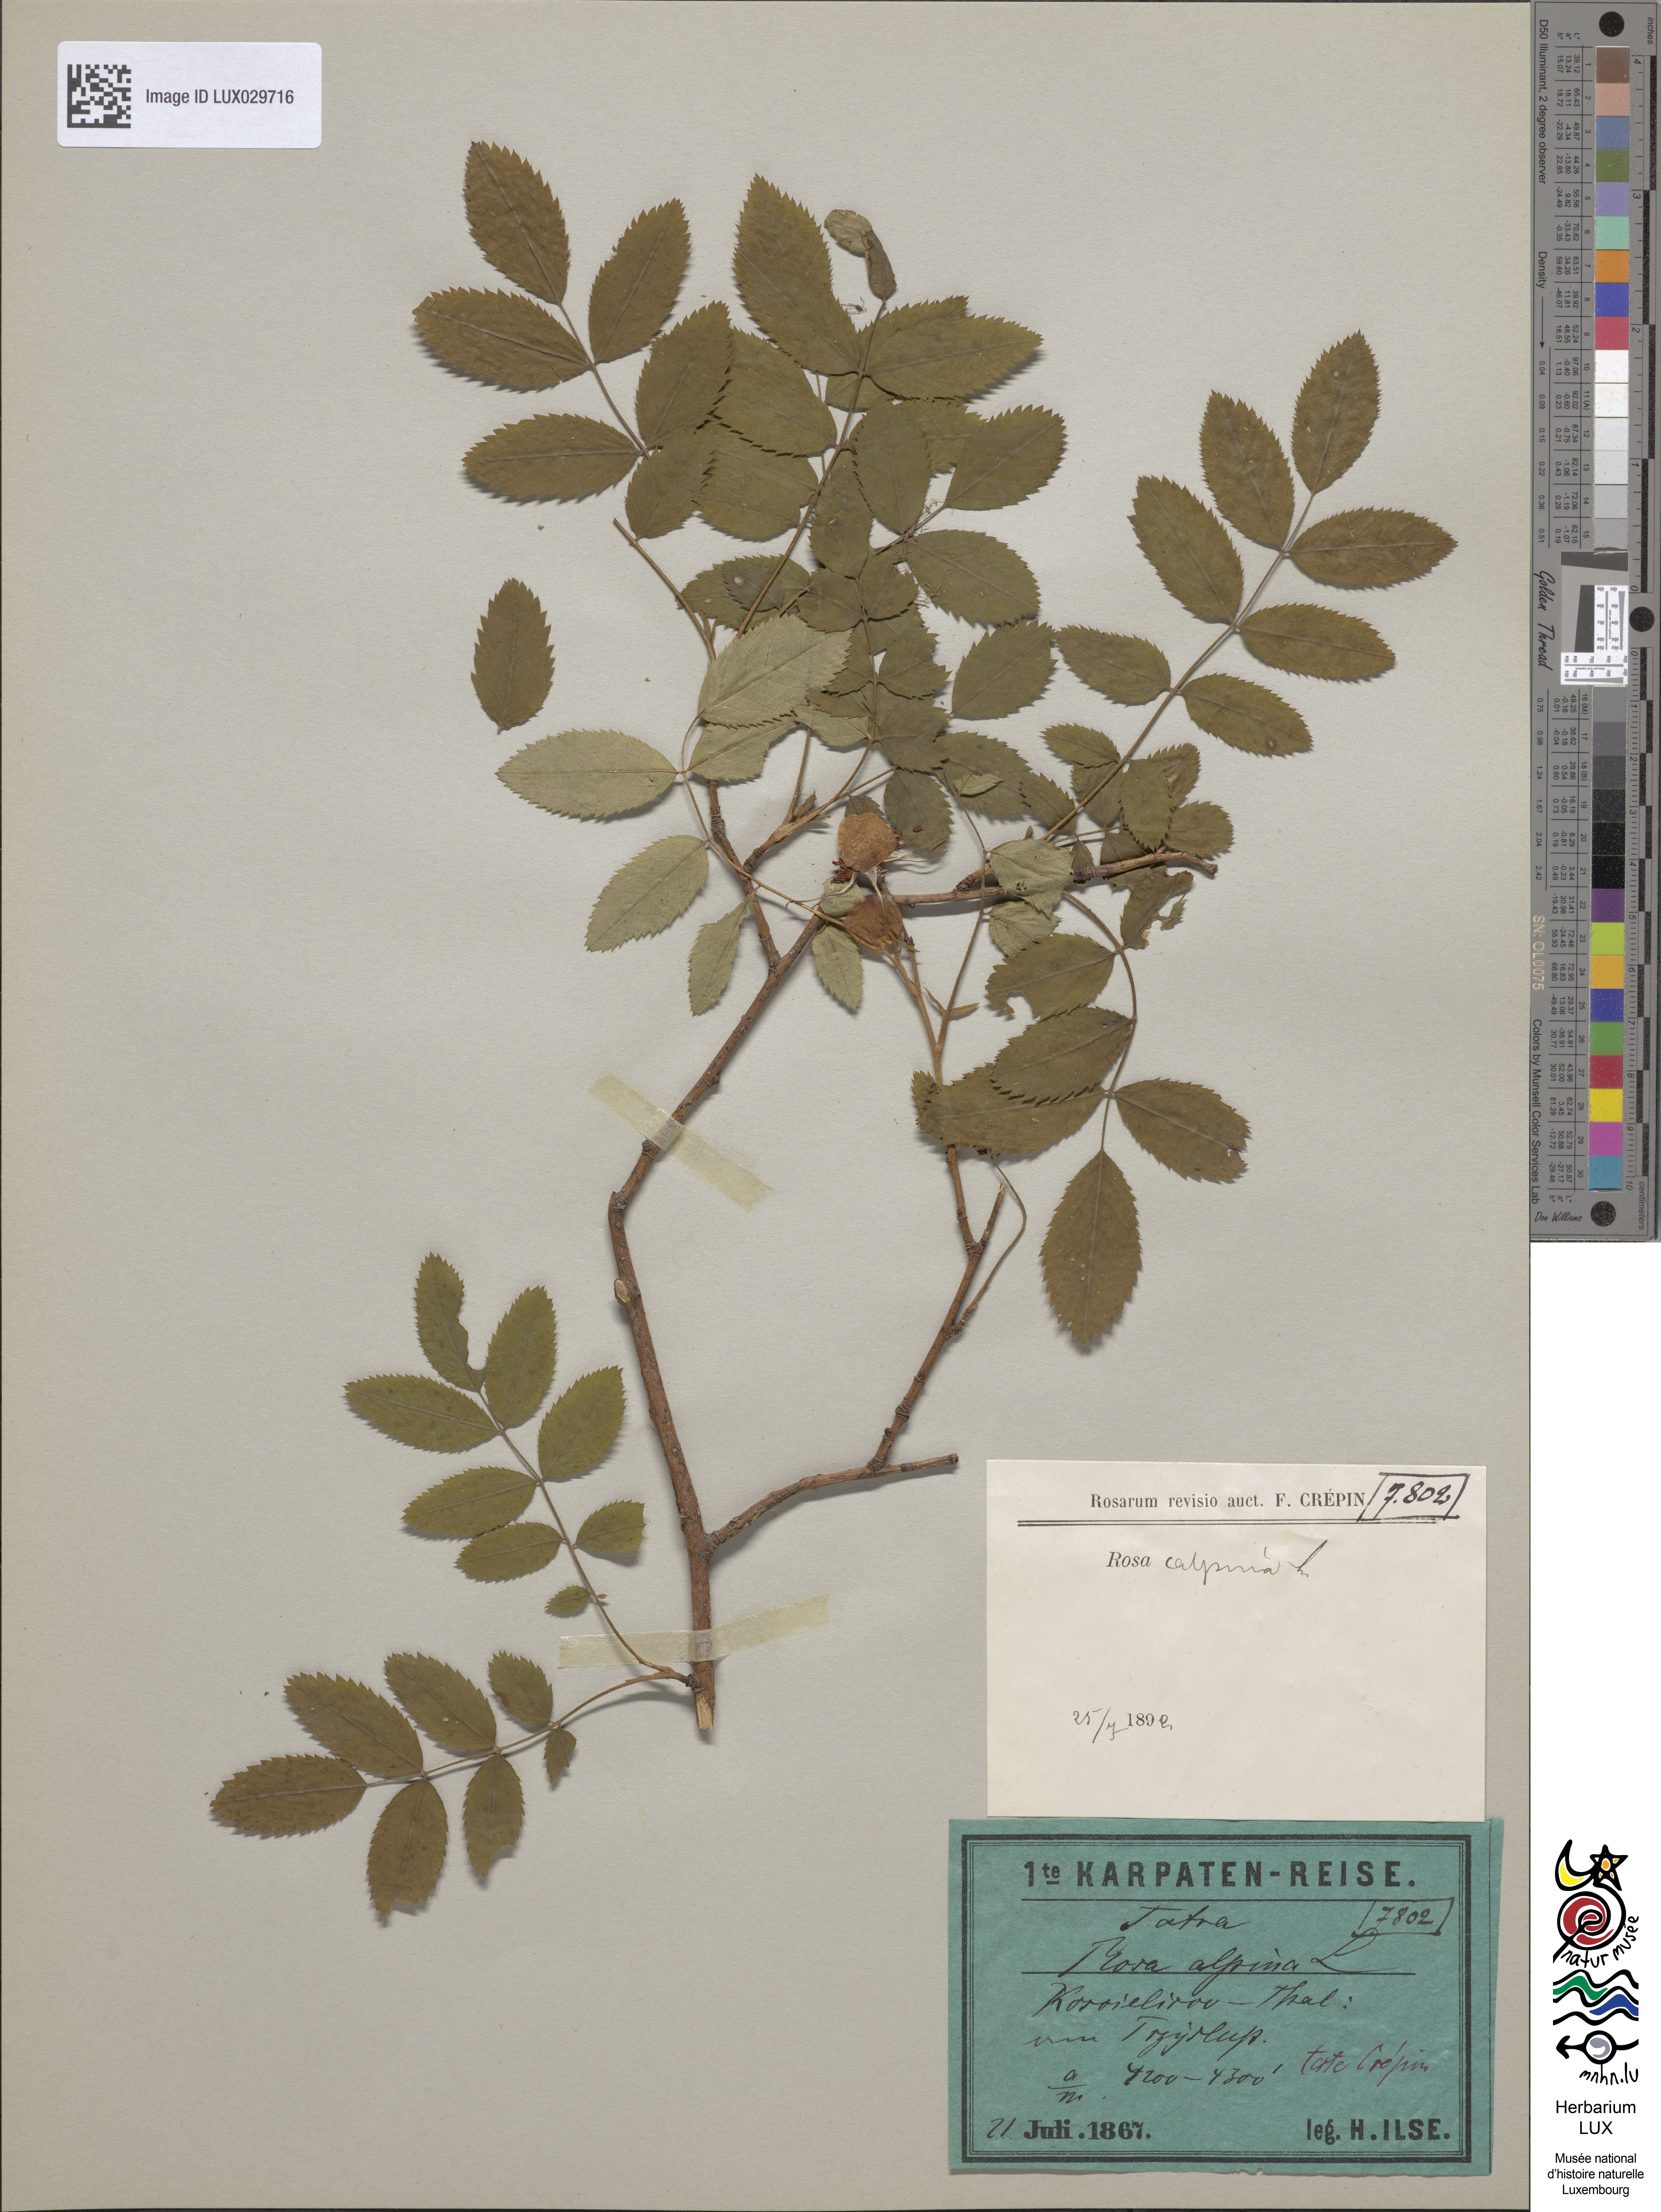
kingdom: Plantae
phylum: Tracheophyta
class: Magnoliopsida
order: Rosales
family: Rosaceae
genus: Rosa
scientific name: Rosa pendulina
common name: Alpine rose
